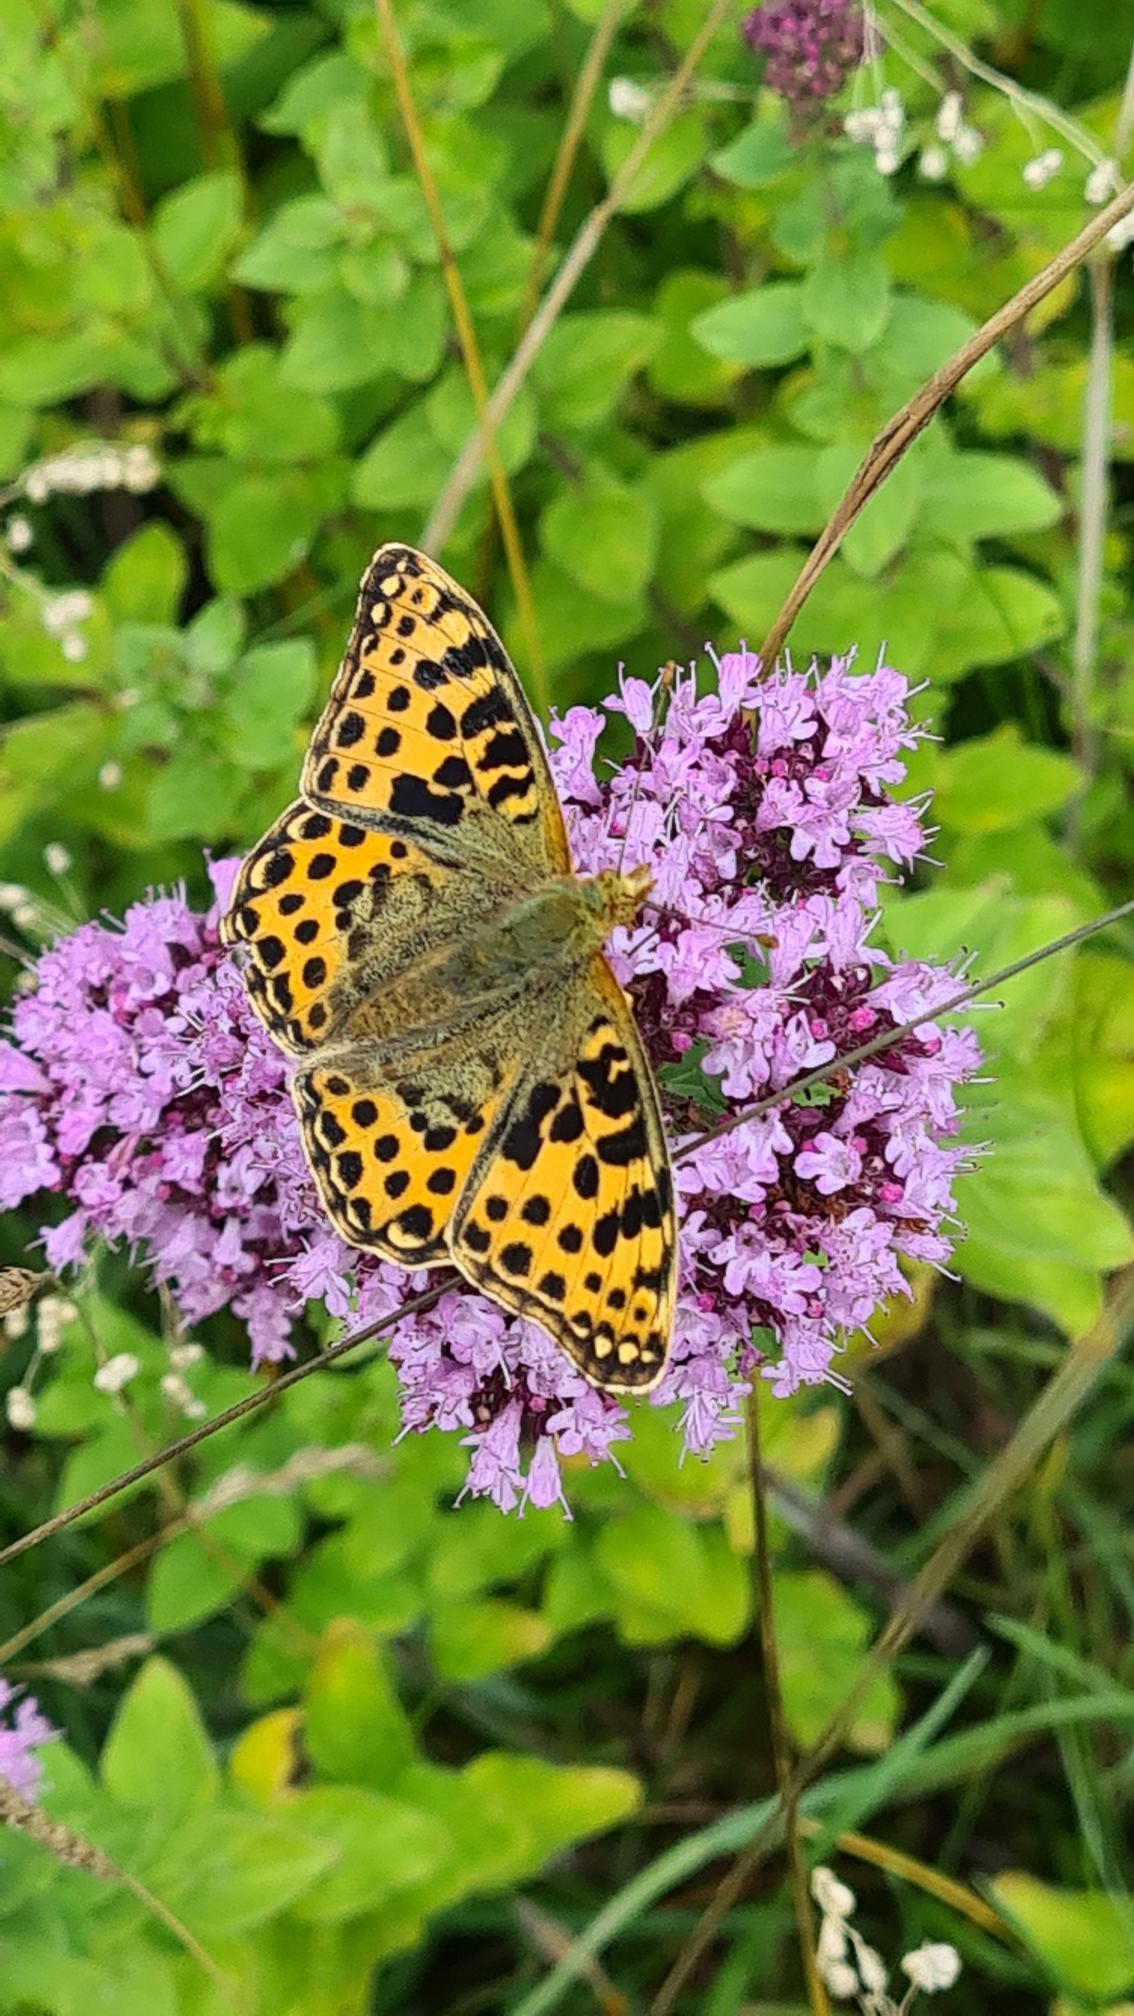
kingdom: Animalia
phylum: Arthropoda
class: Insecta
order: Lepidoptera
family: Nymphalidae
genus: Issoria
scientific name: Issoria lathonia
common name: Storplettet perlemorsommerfugl
